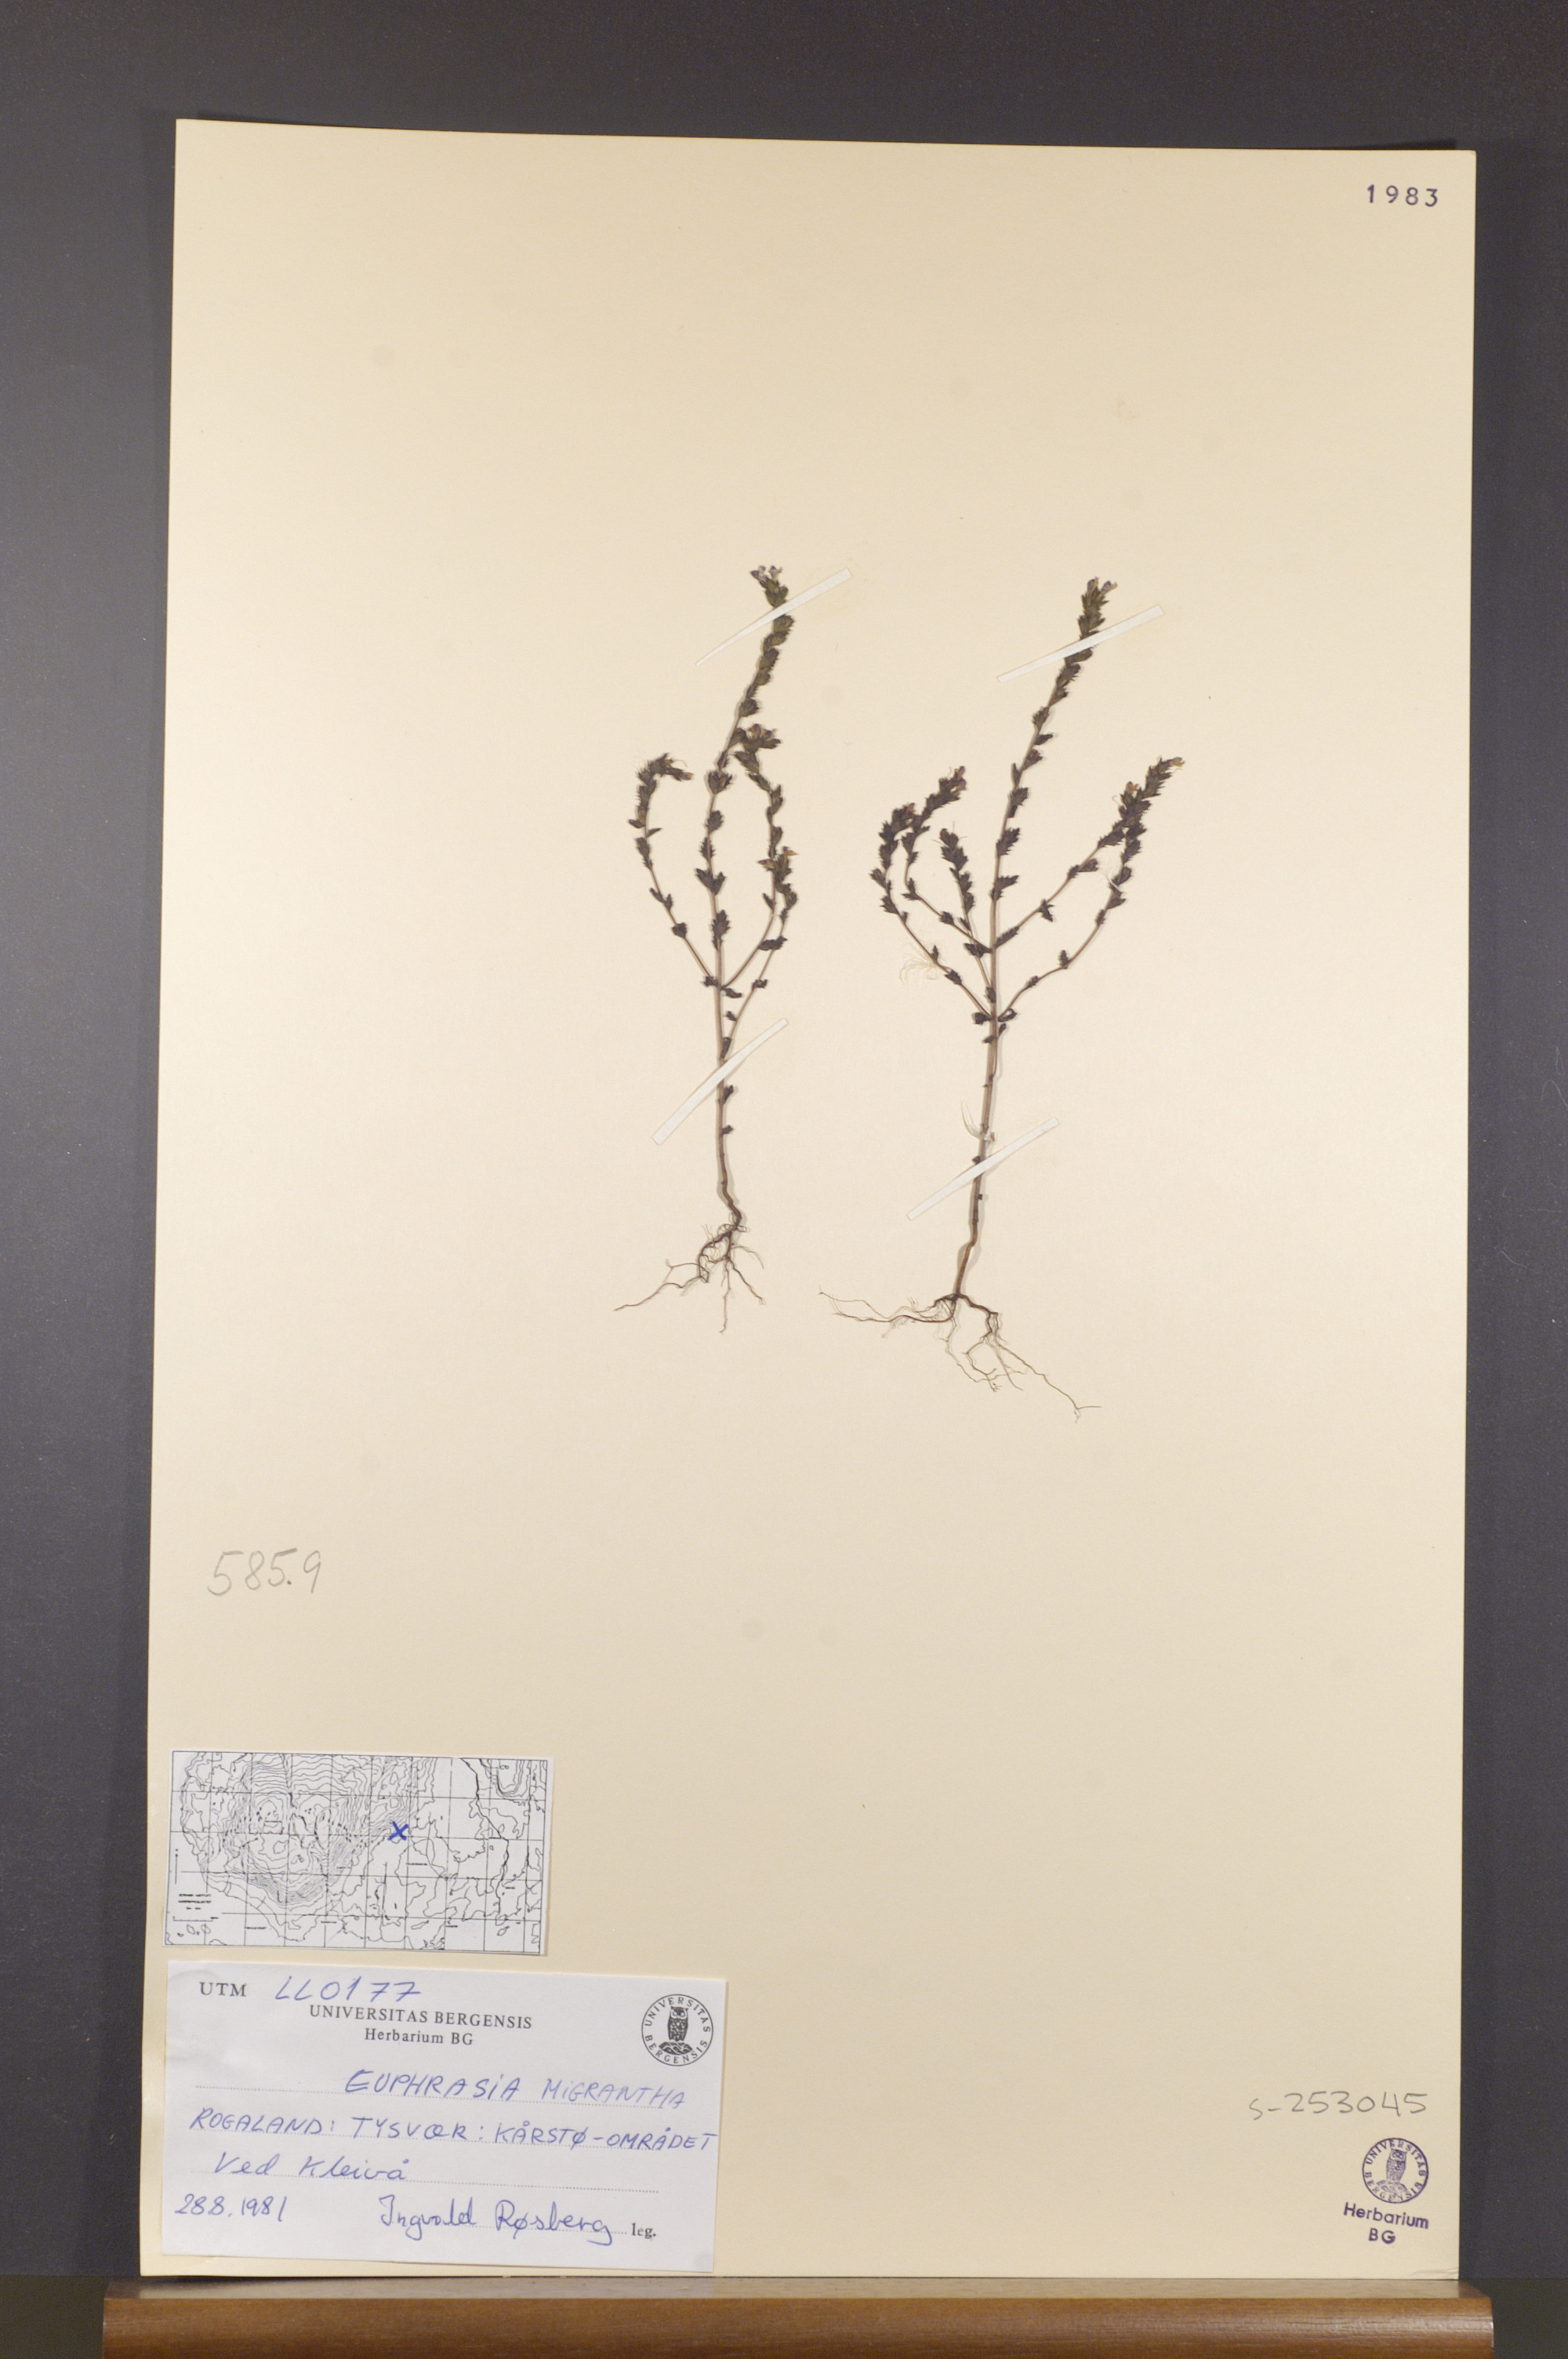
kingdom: Plantae
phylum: Tracheophyta
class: Magnoliopsida
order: Lamiales
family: Orobanchaceae
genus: Euphrasia
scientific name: Euphrasia micrantha
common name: Northern eyebright
